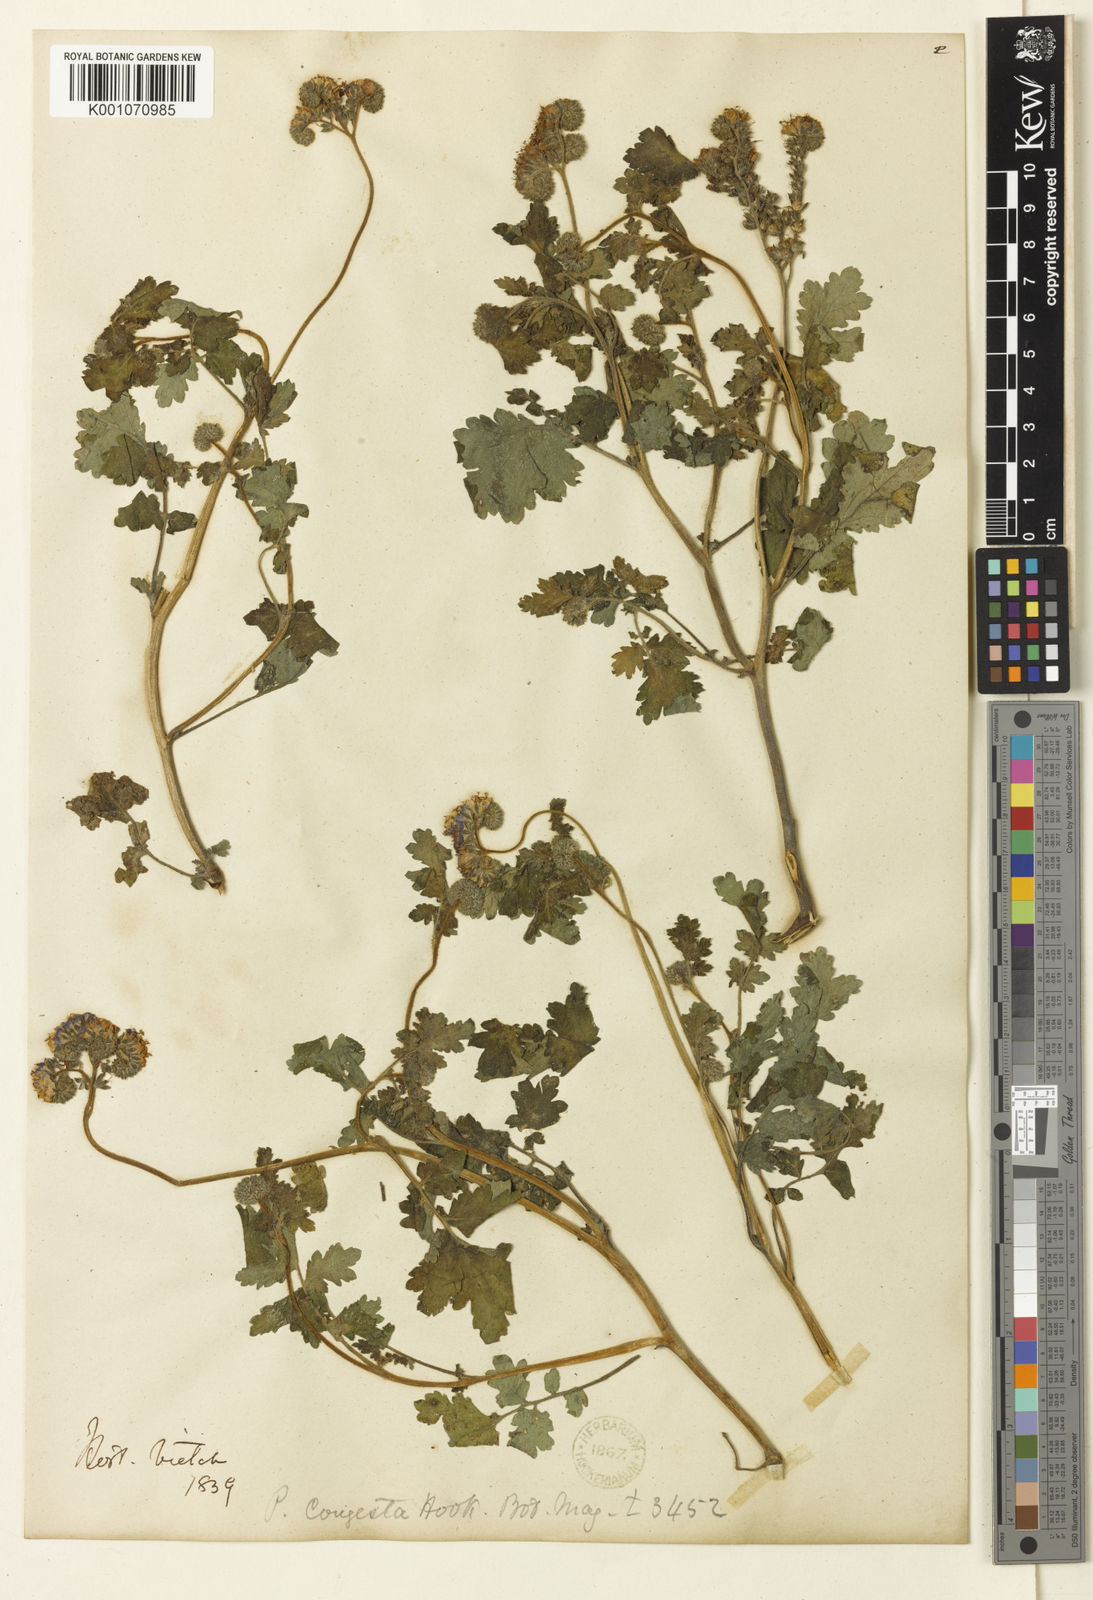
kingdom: Plantae
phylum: Tracheophyta
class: Magnoliopsida
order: Boraginales
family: Hydrophyllaceae
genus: Phacelia
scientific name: Phacelia congesta
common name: Blue curls
